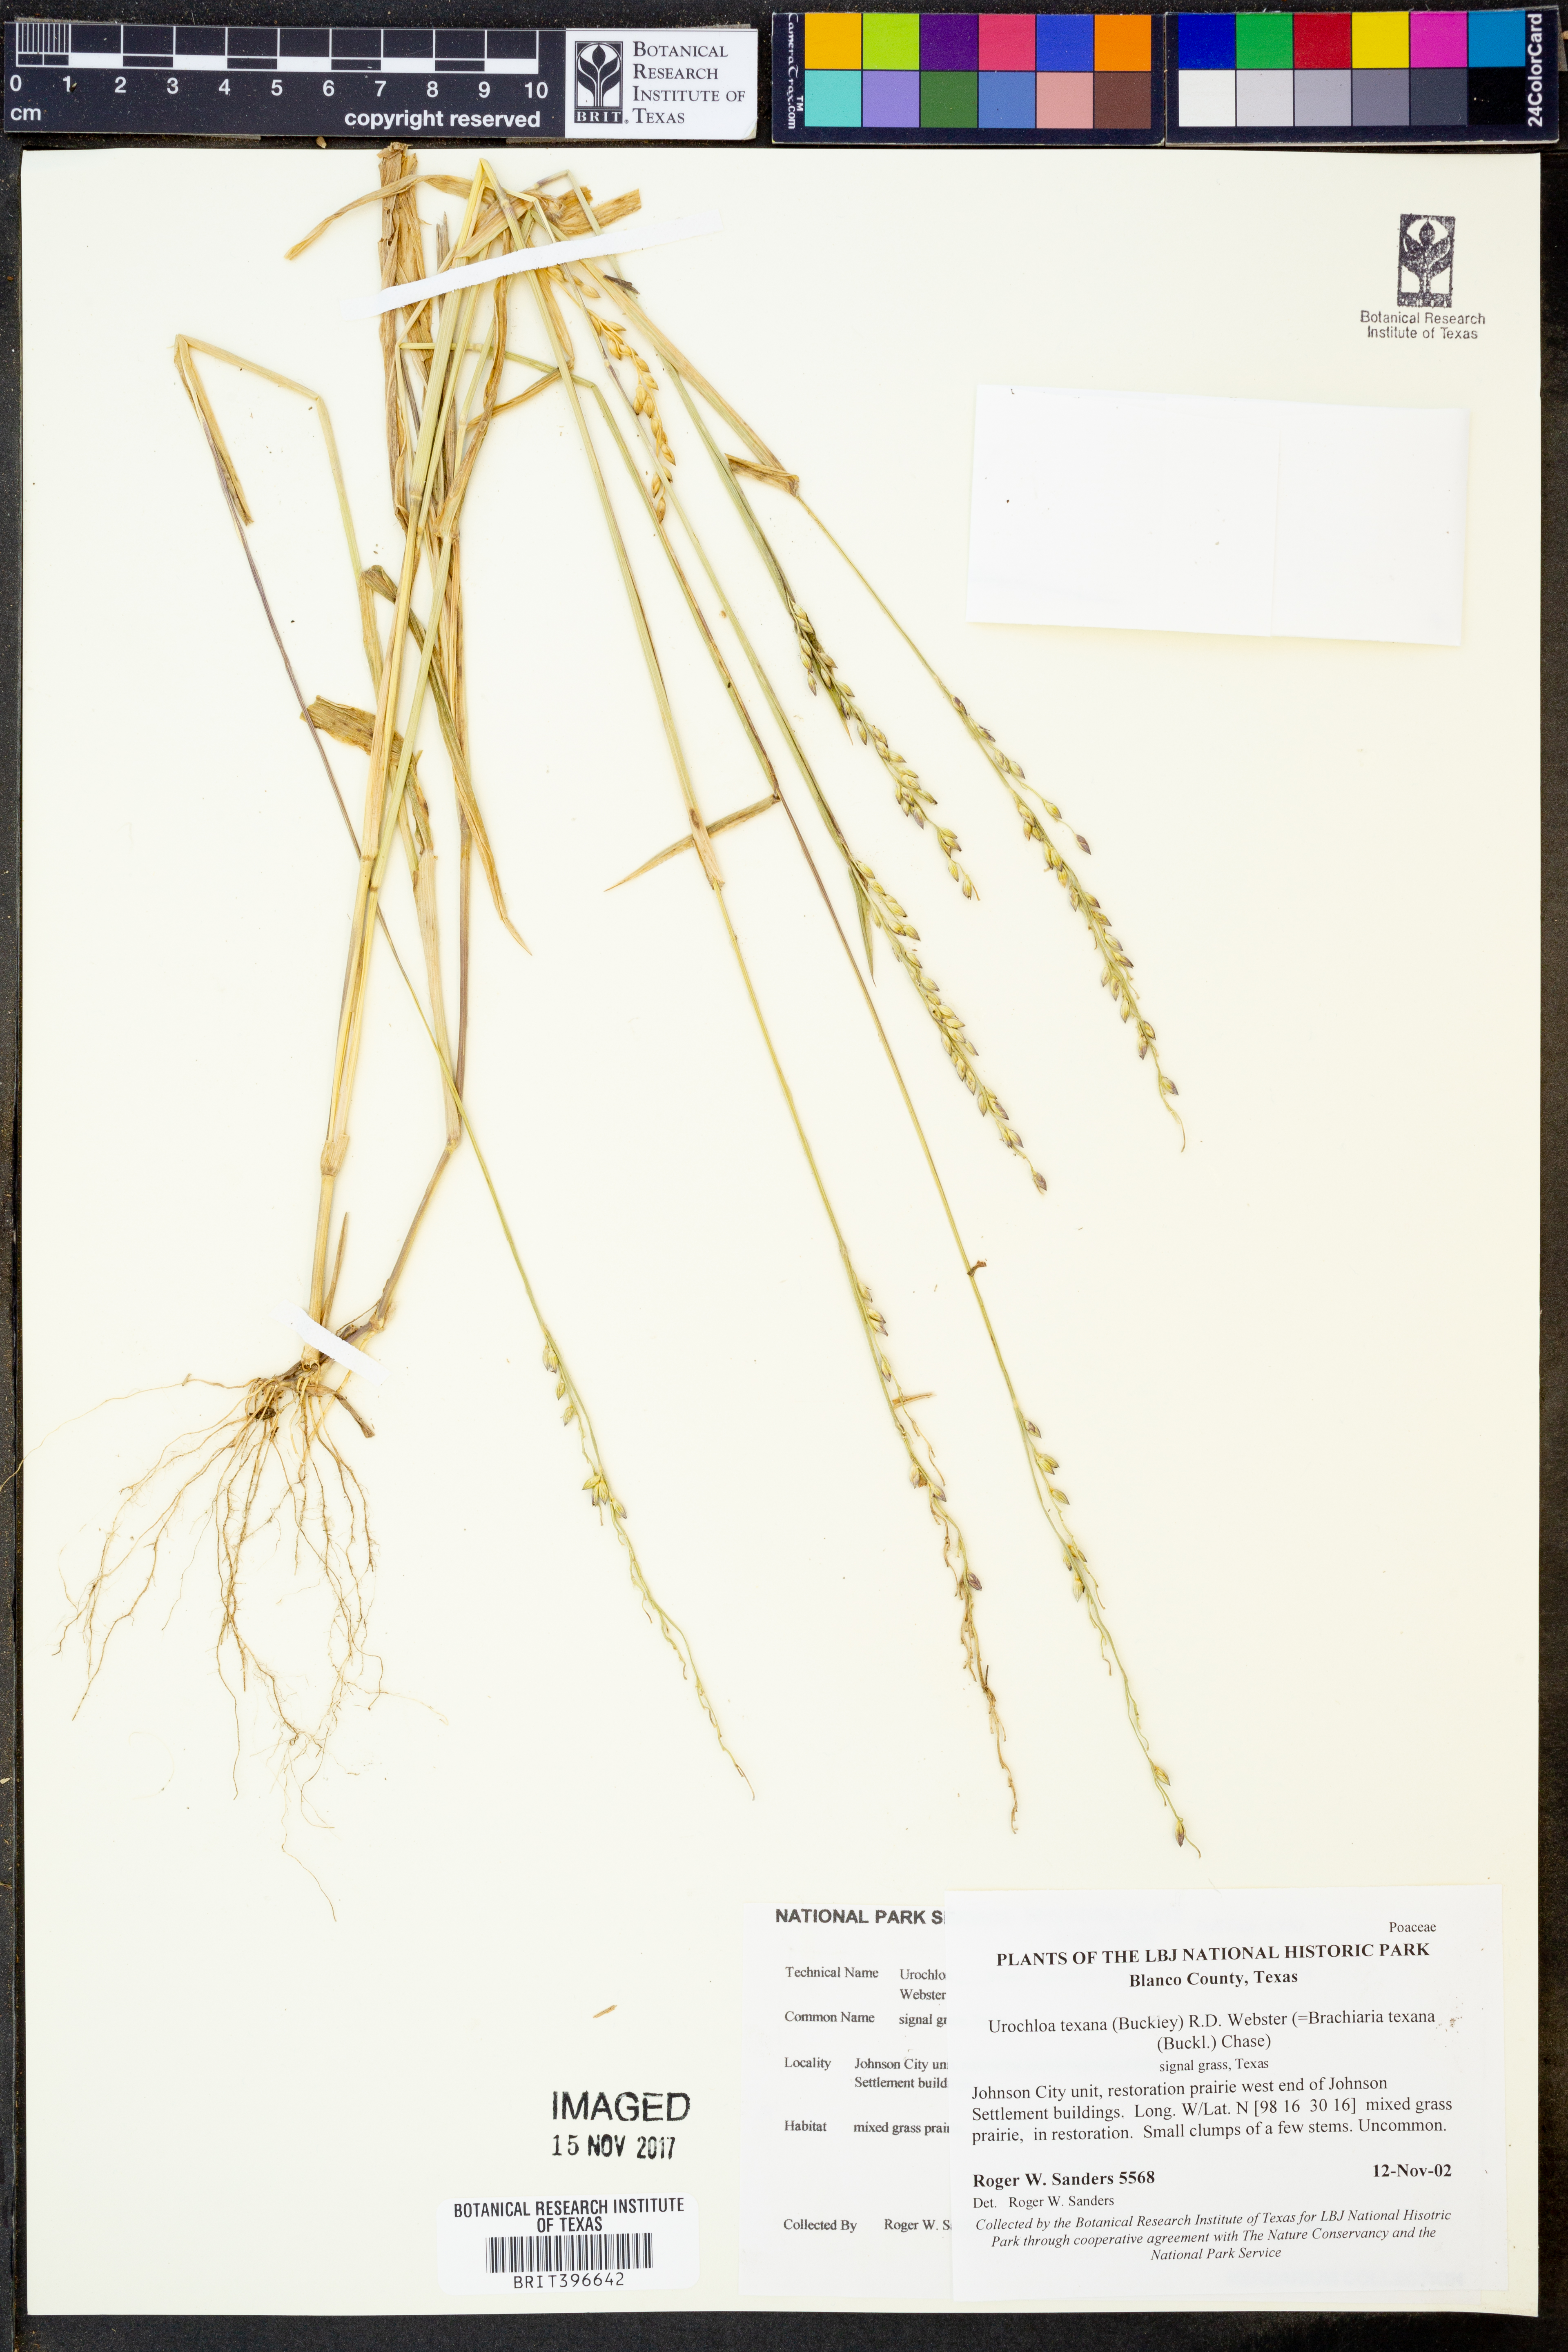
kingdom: Plantae
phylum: Tracheophyta
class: Liliopsida
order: Poales
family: Poaceae
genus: Urochloa
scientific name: Urochloa texana
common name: Texas millet
